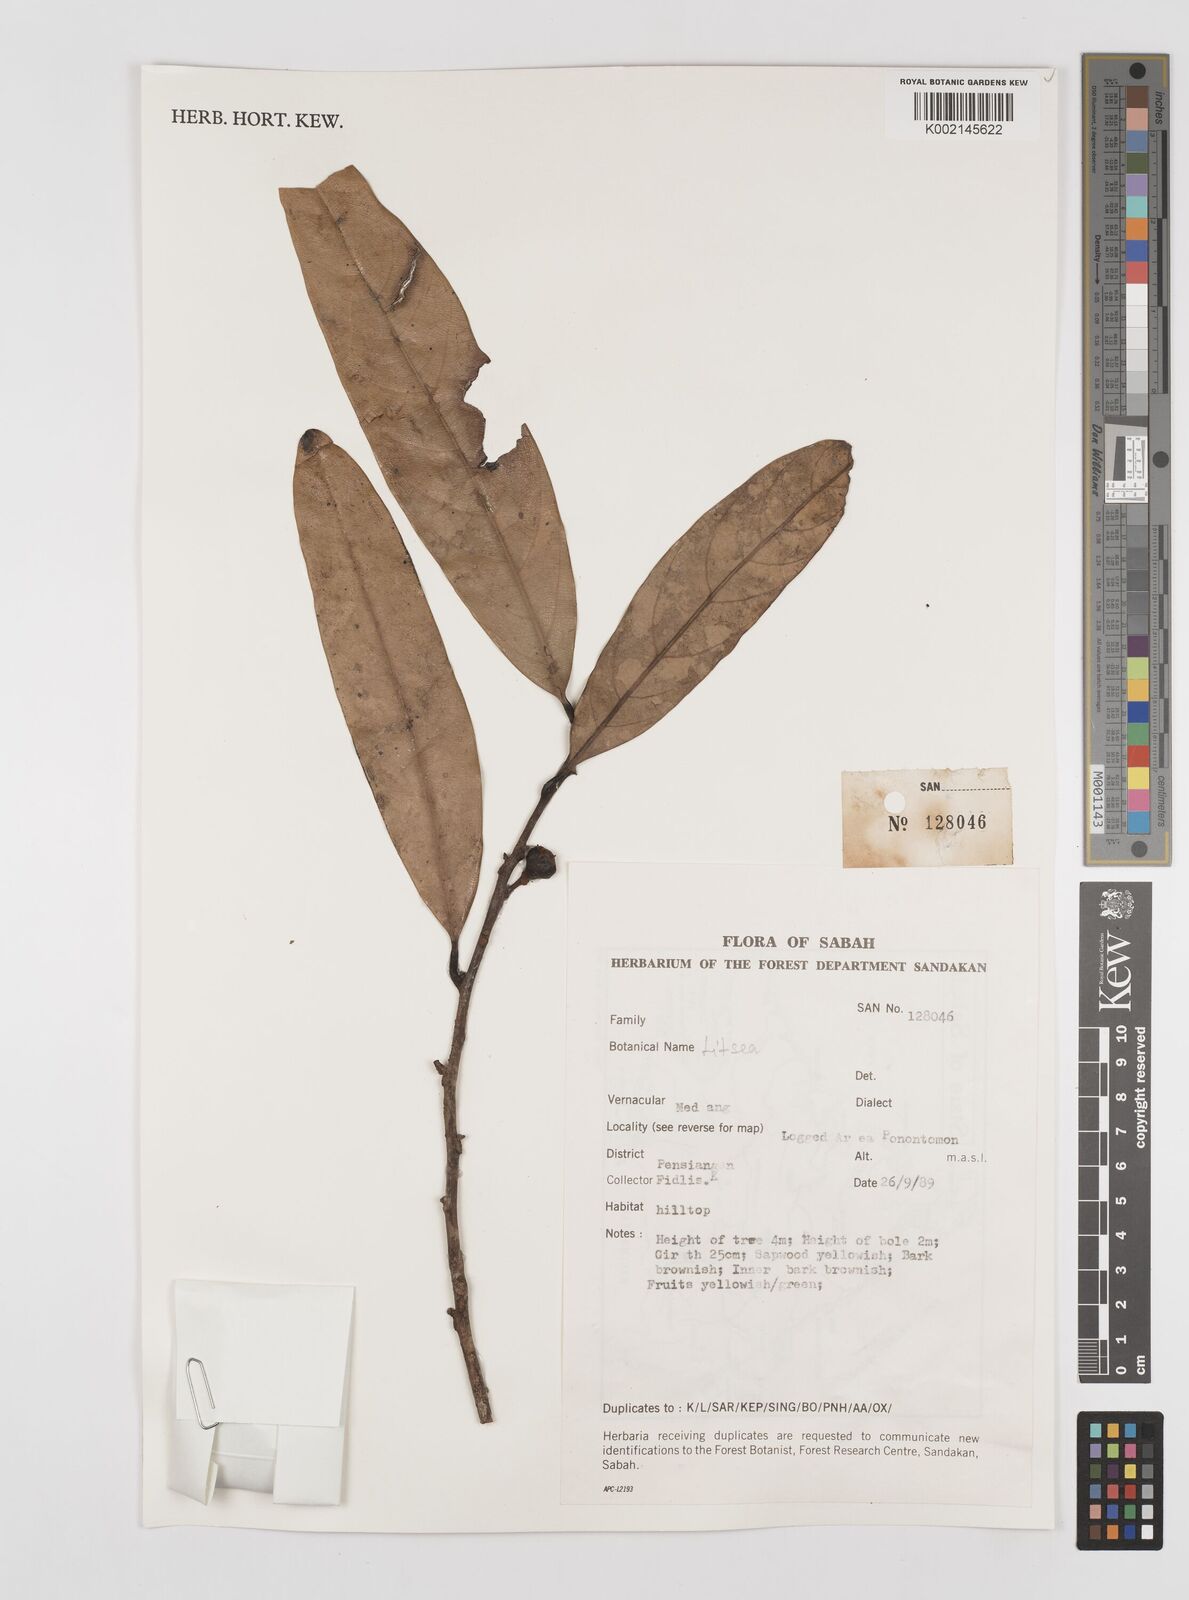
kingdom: Plantae
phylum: Tracheophyta
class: Magnoliopsida
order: Laurales
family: Lauraceae
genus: Litsea
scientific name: Litsea
